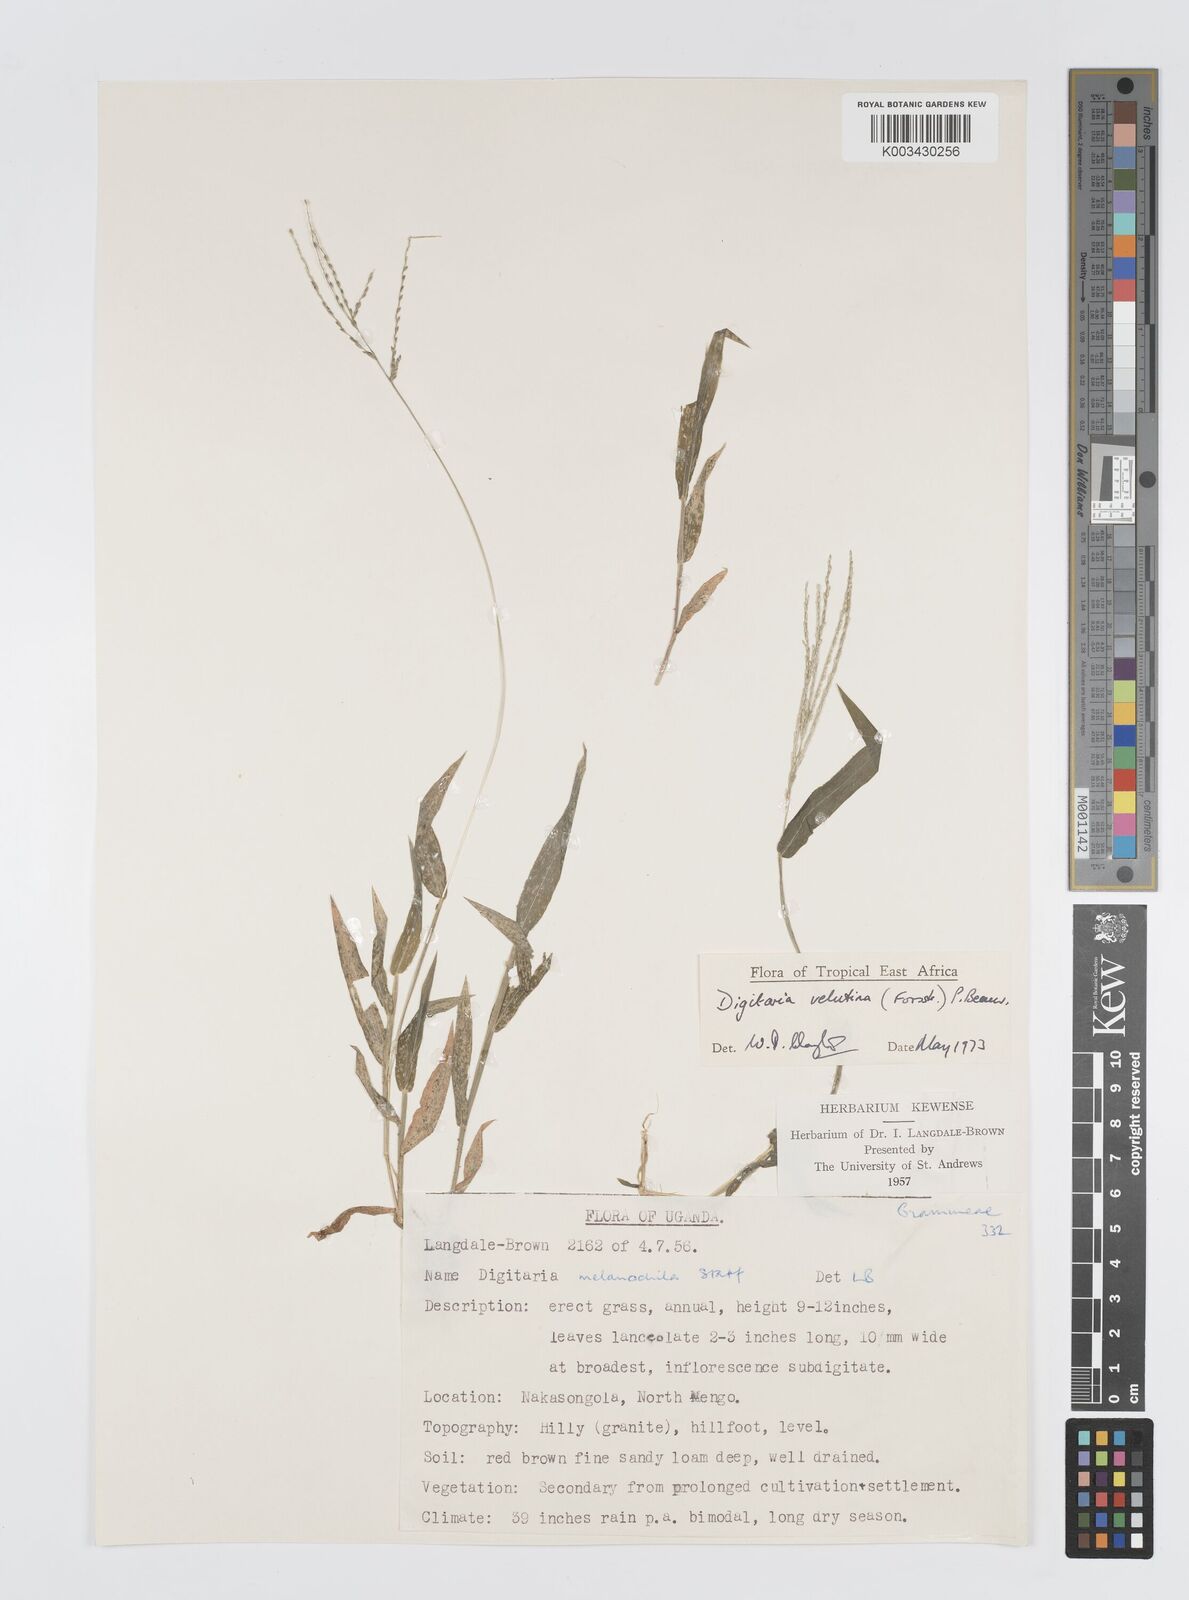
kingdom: Plantae
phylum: Tracheophyta
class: Liliopsida
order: Poales
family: Poaceae
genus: Digitaria
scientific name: Digitaria velutina
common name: Long-plume finger grass
